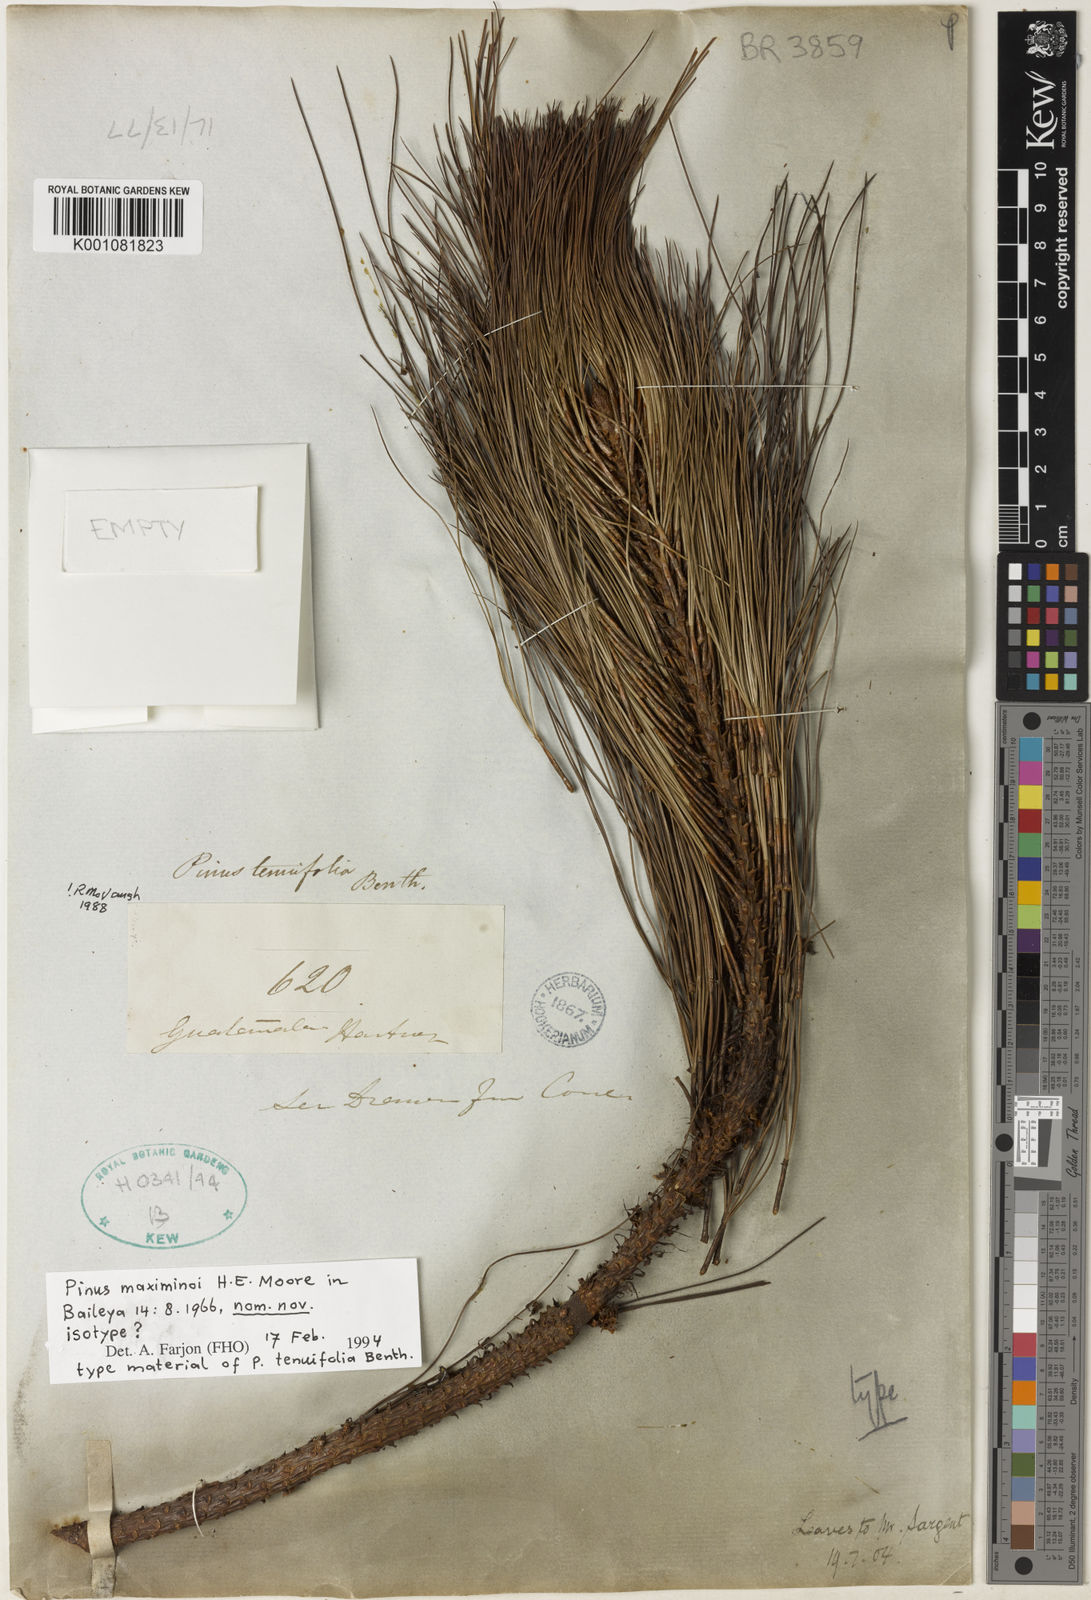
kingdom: Plantae
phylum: Tracheophyta
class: Pinopsida
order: Pinales
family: Pinaceae
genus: Pinus
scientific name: Pinus maximinoi
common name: Thin-leaf pine
